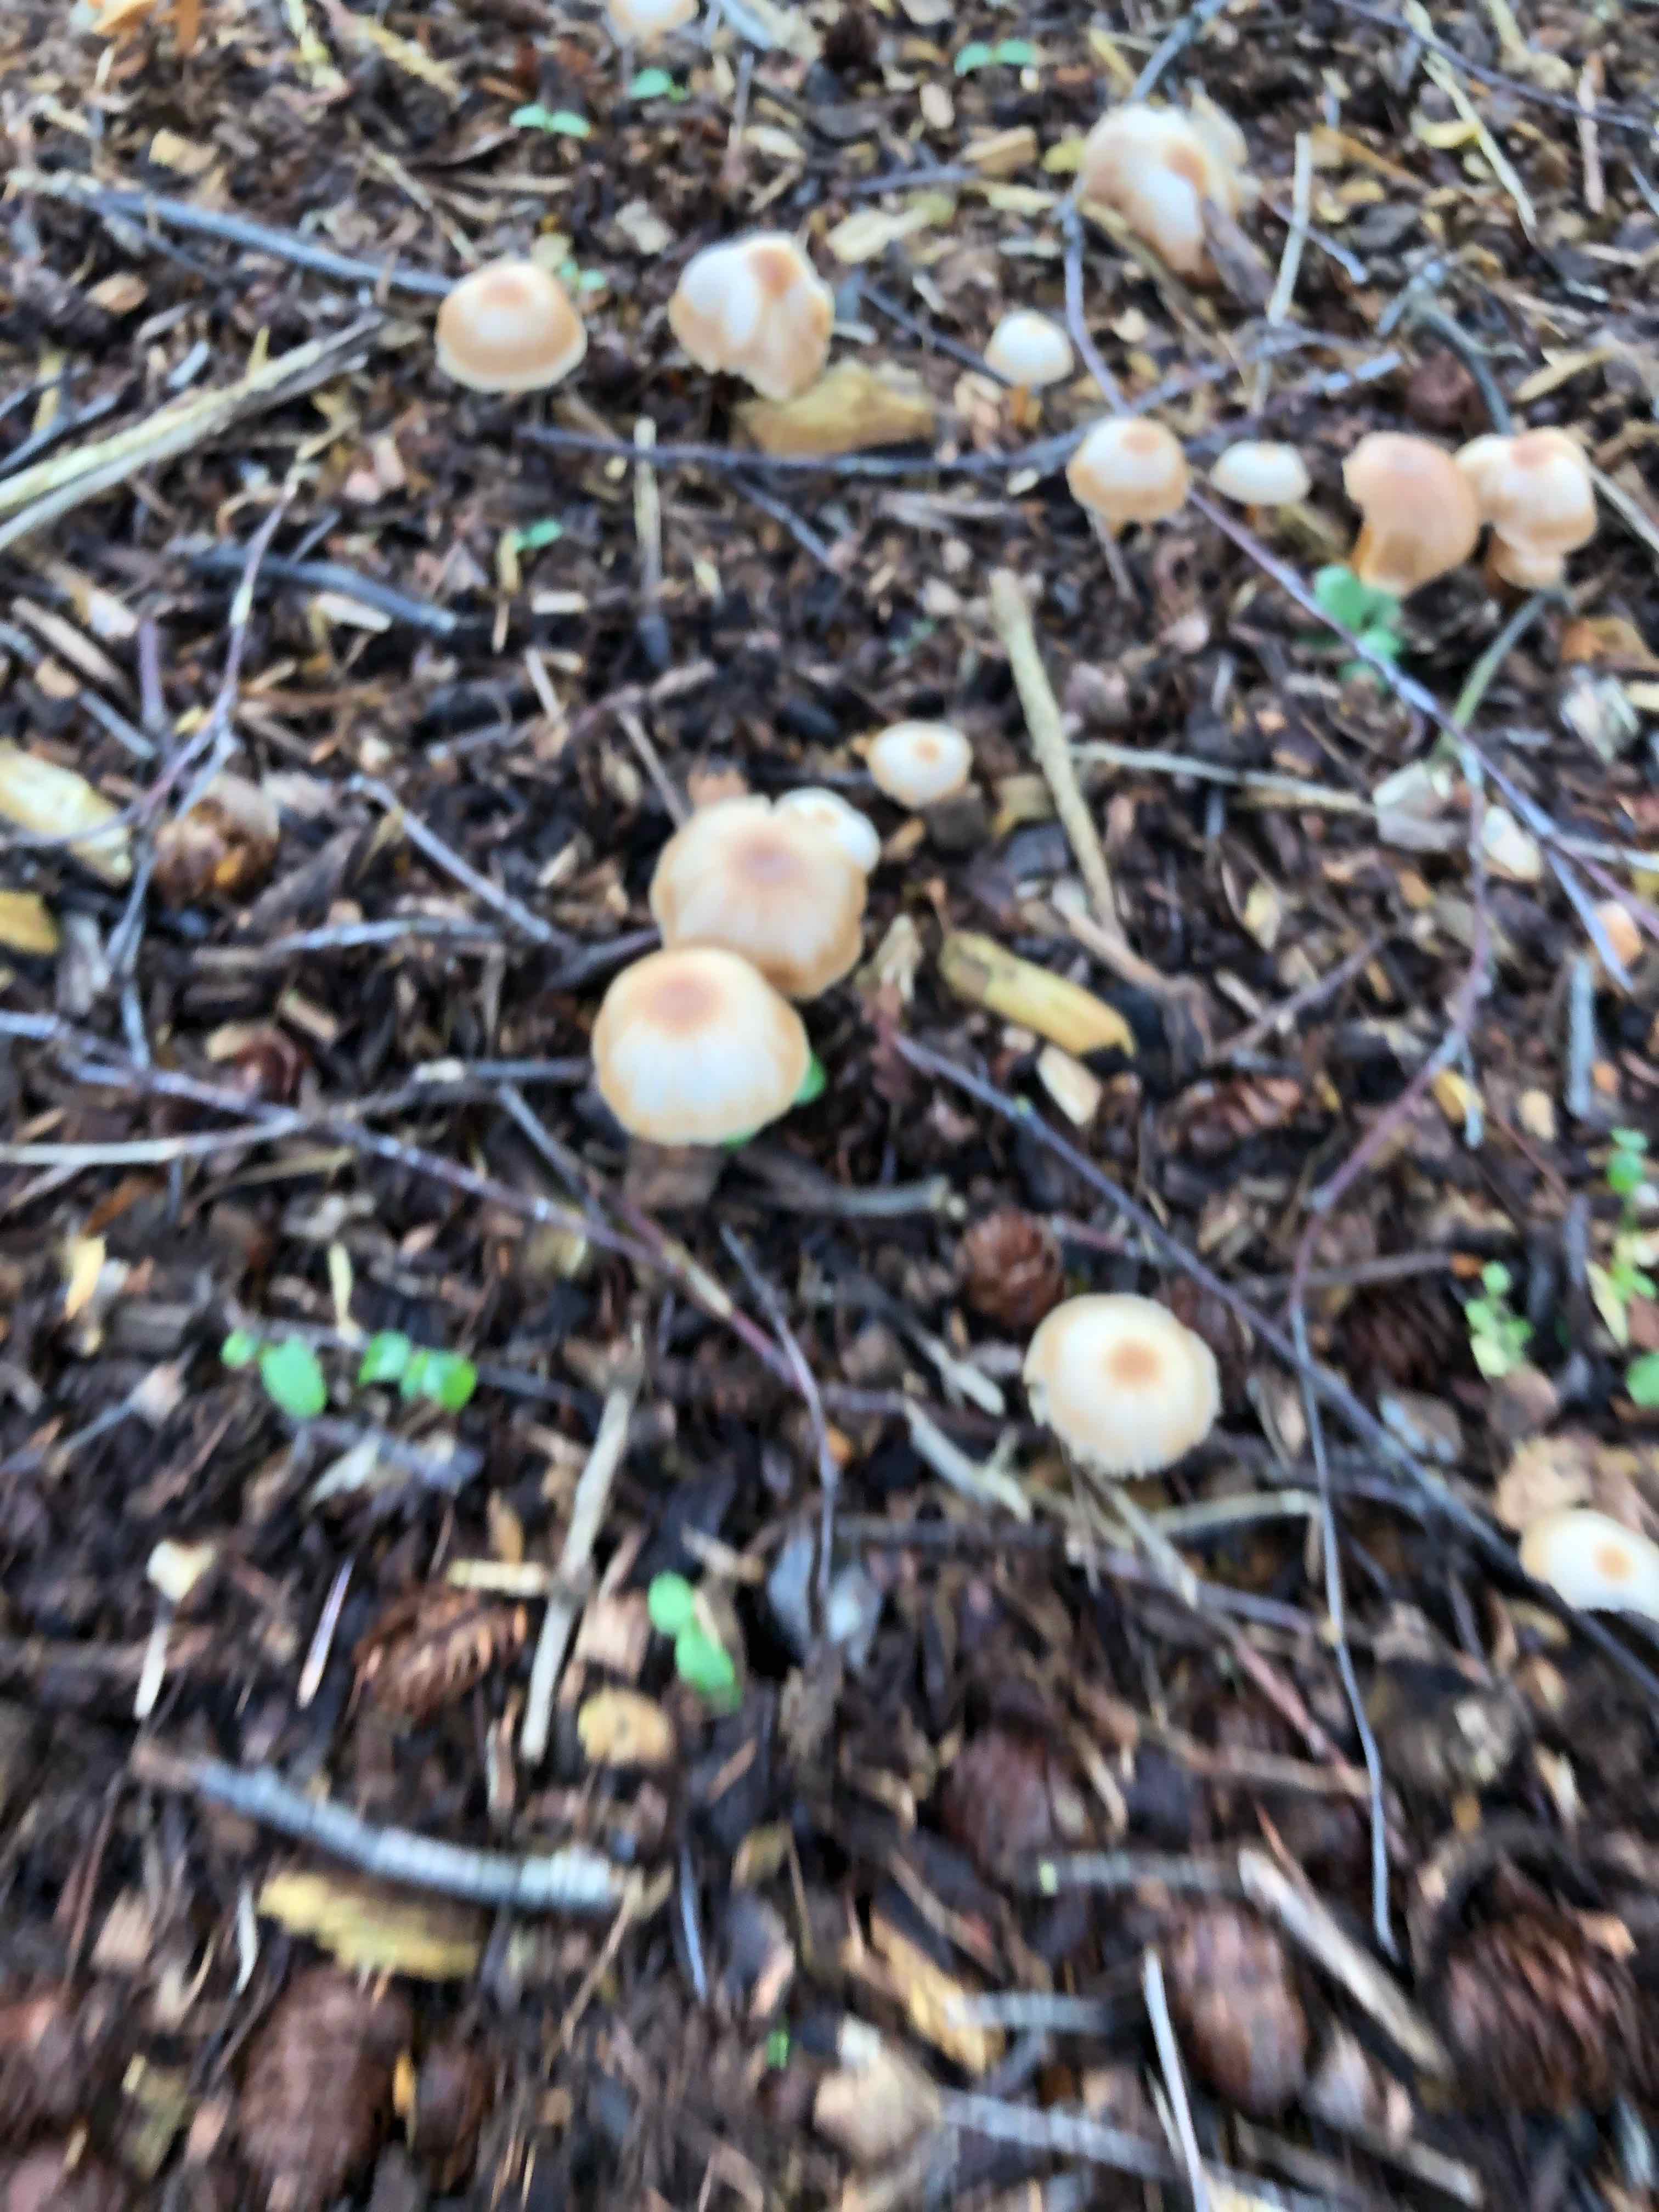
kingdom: Fungi
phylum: Basidiomycota
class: Agaricomycetes
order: Agaricales
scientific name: Agaricales
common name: champignonordenen
